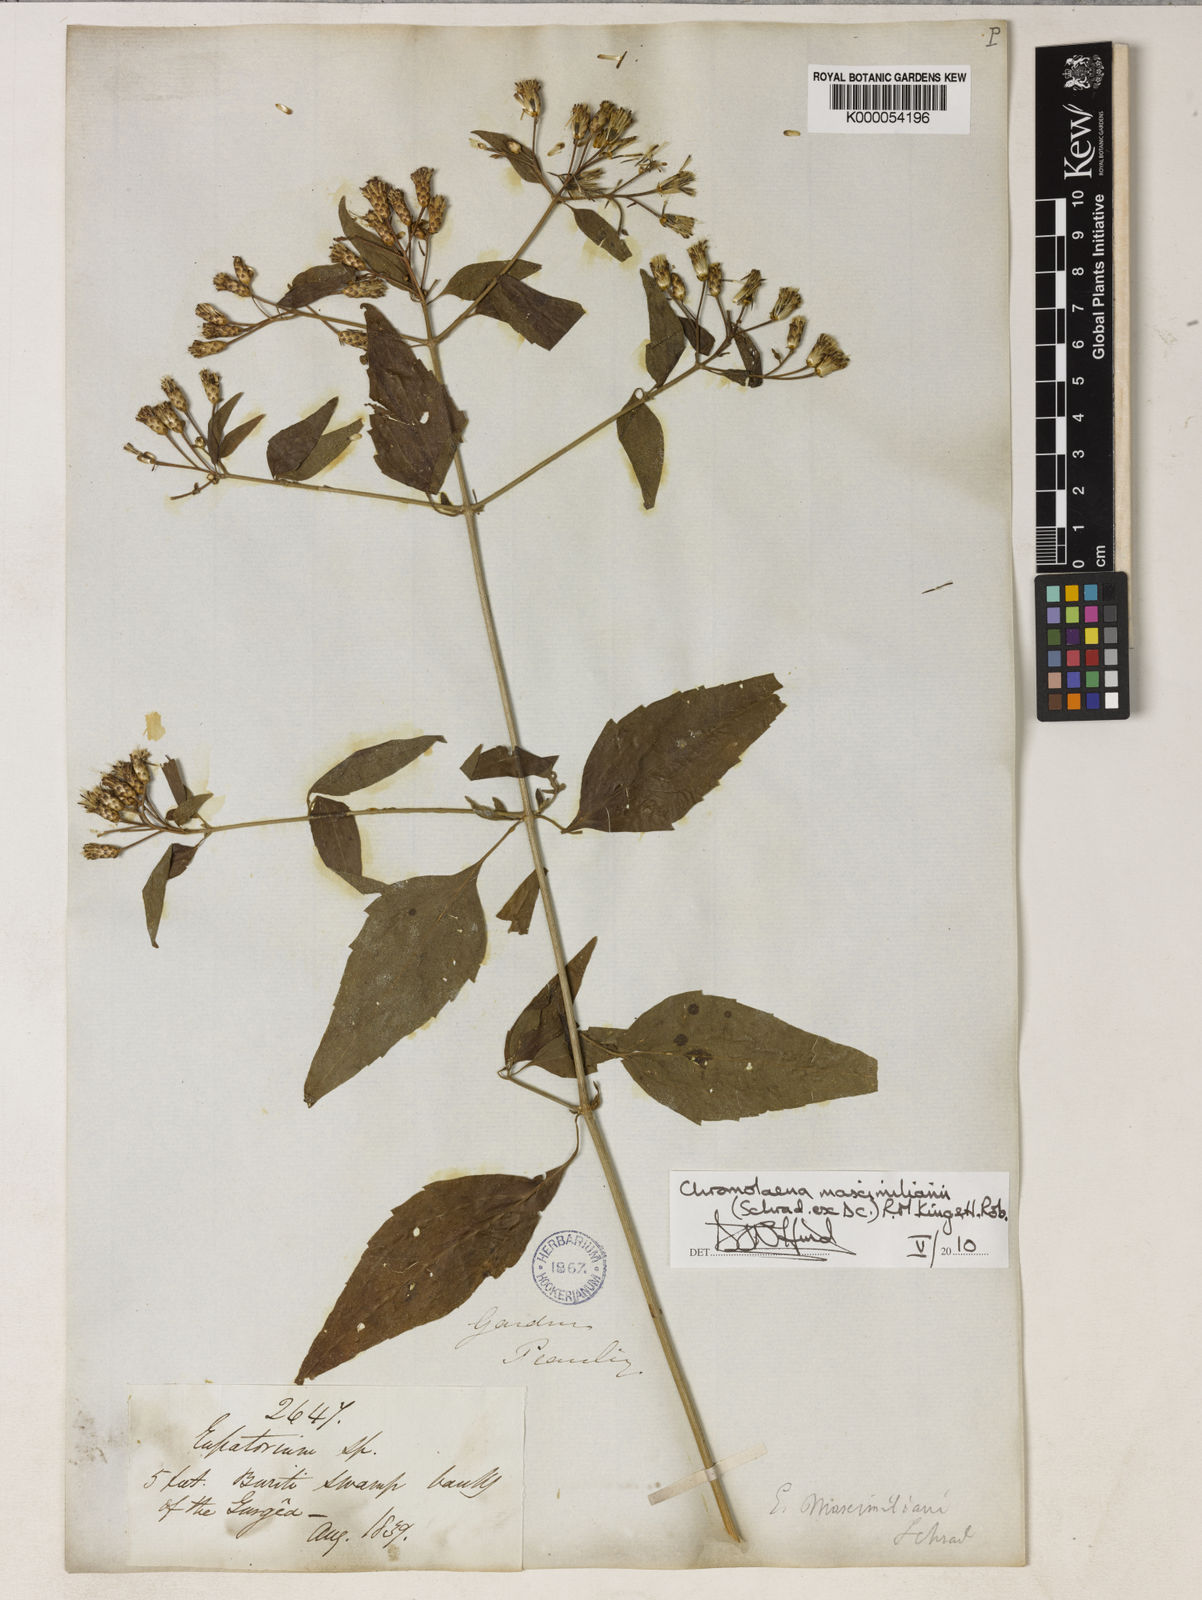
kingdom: Plantae
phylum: Tracheophyta
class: Magnoliopsida
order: Asterales
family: Asteraceae
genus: Chromolaena
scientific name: Chromolaena maximiliani
